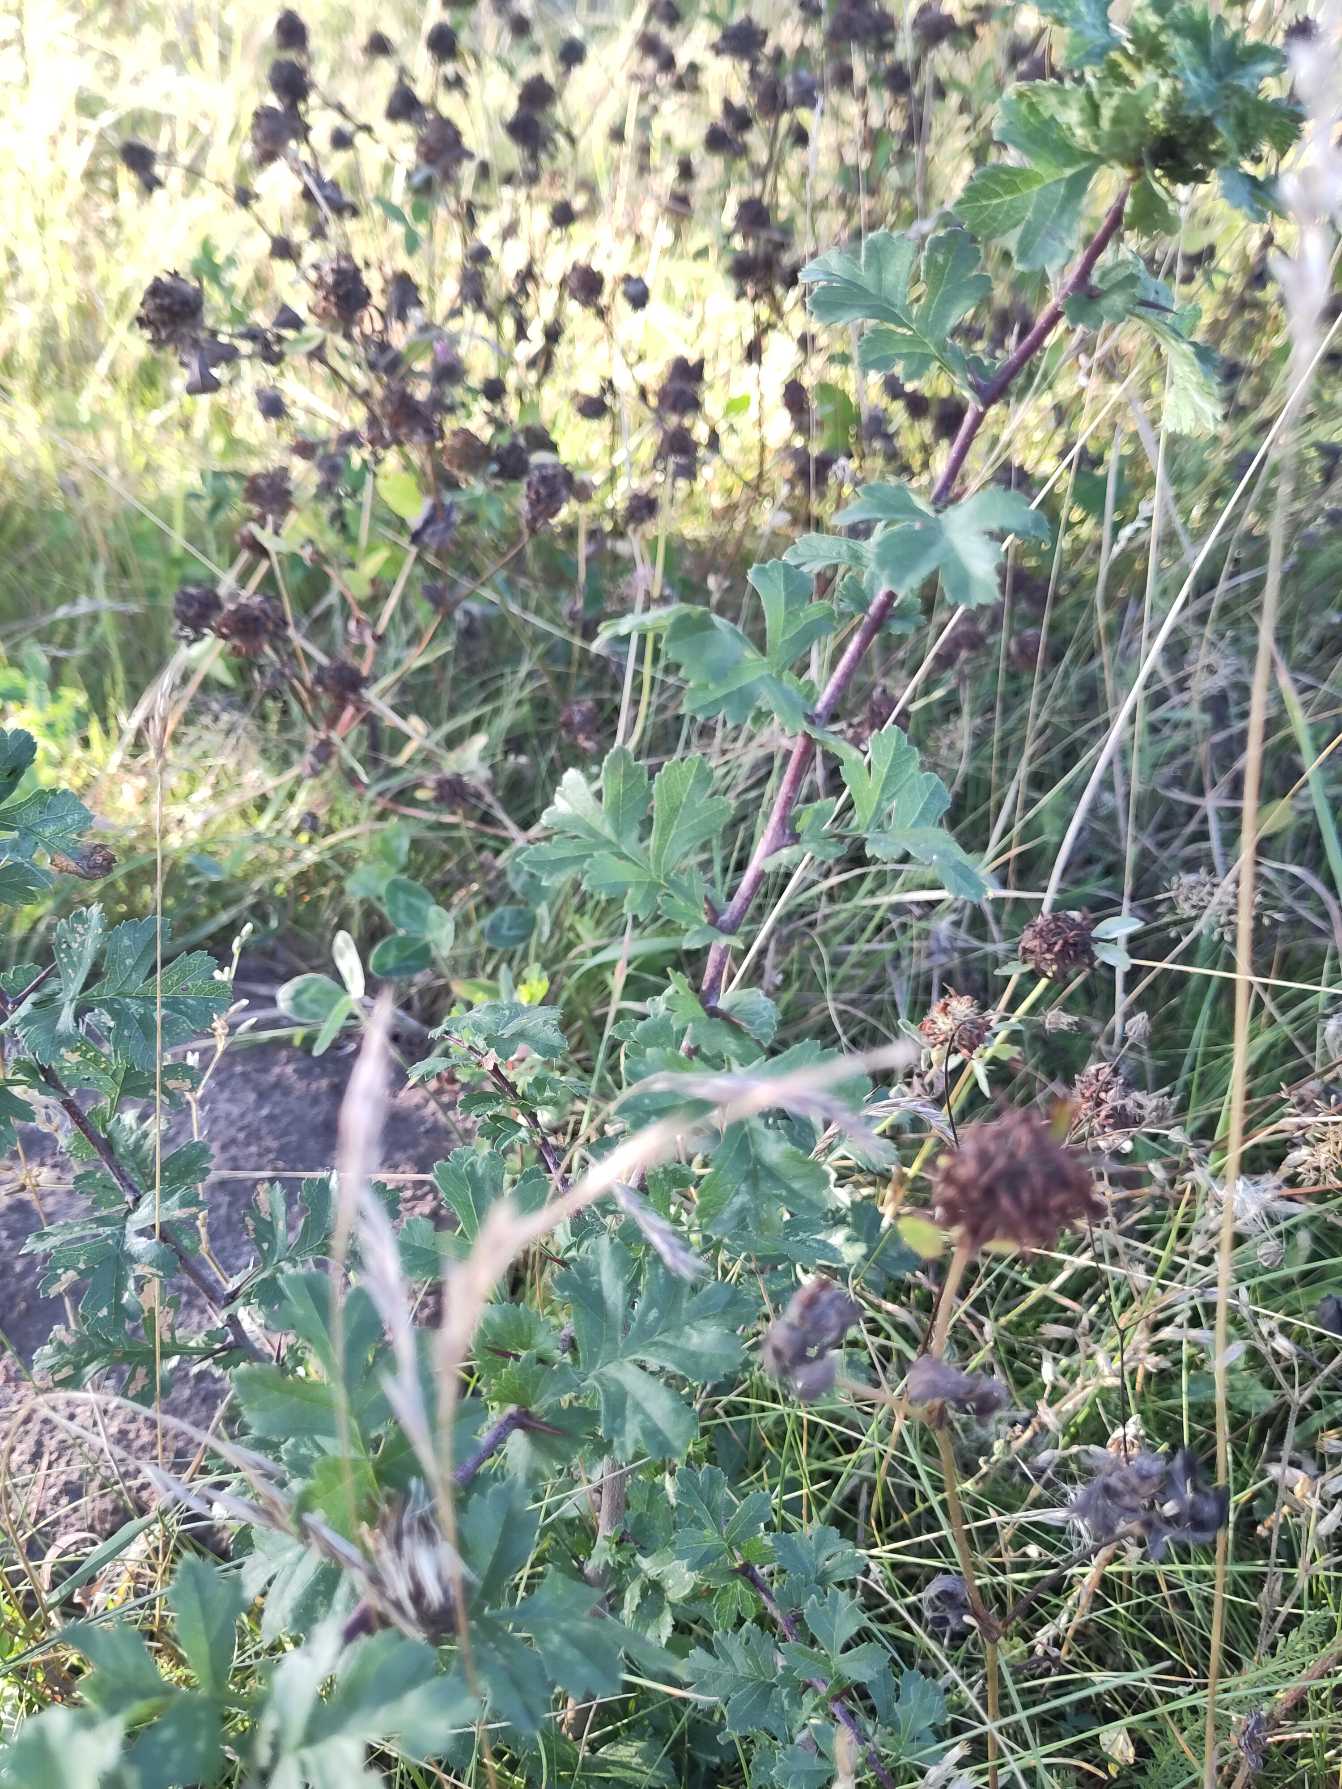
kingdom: Plantae
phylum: Tracheophyta
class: Magnoliopsida
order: Rosales
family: Rosaceae
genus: Crataegus
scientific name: Crataegus monogyna
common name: Engriflet hvidtjørn
